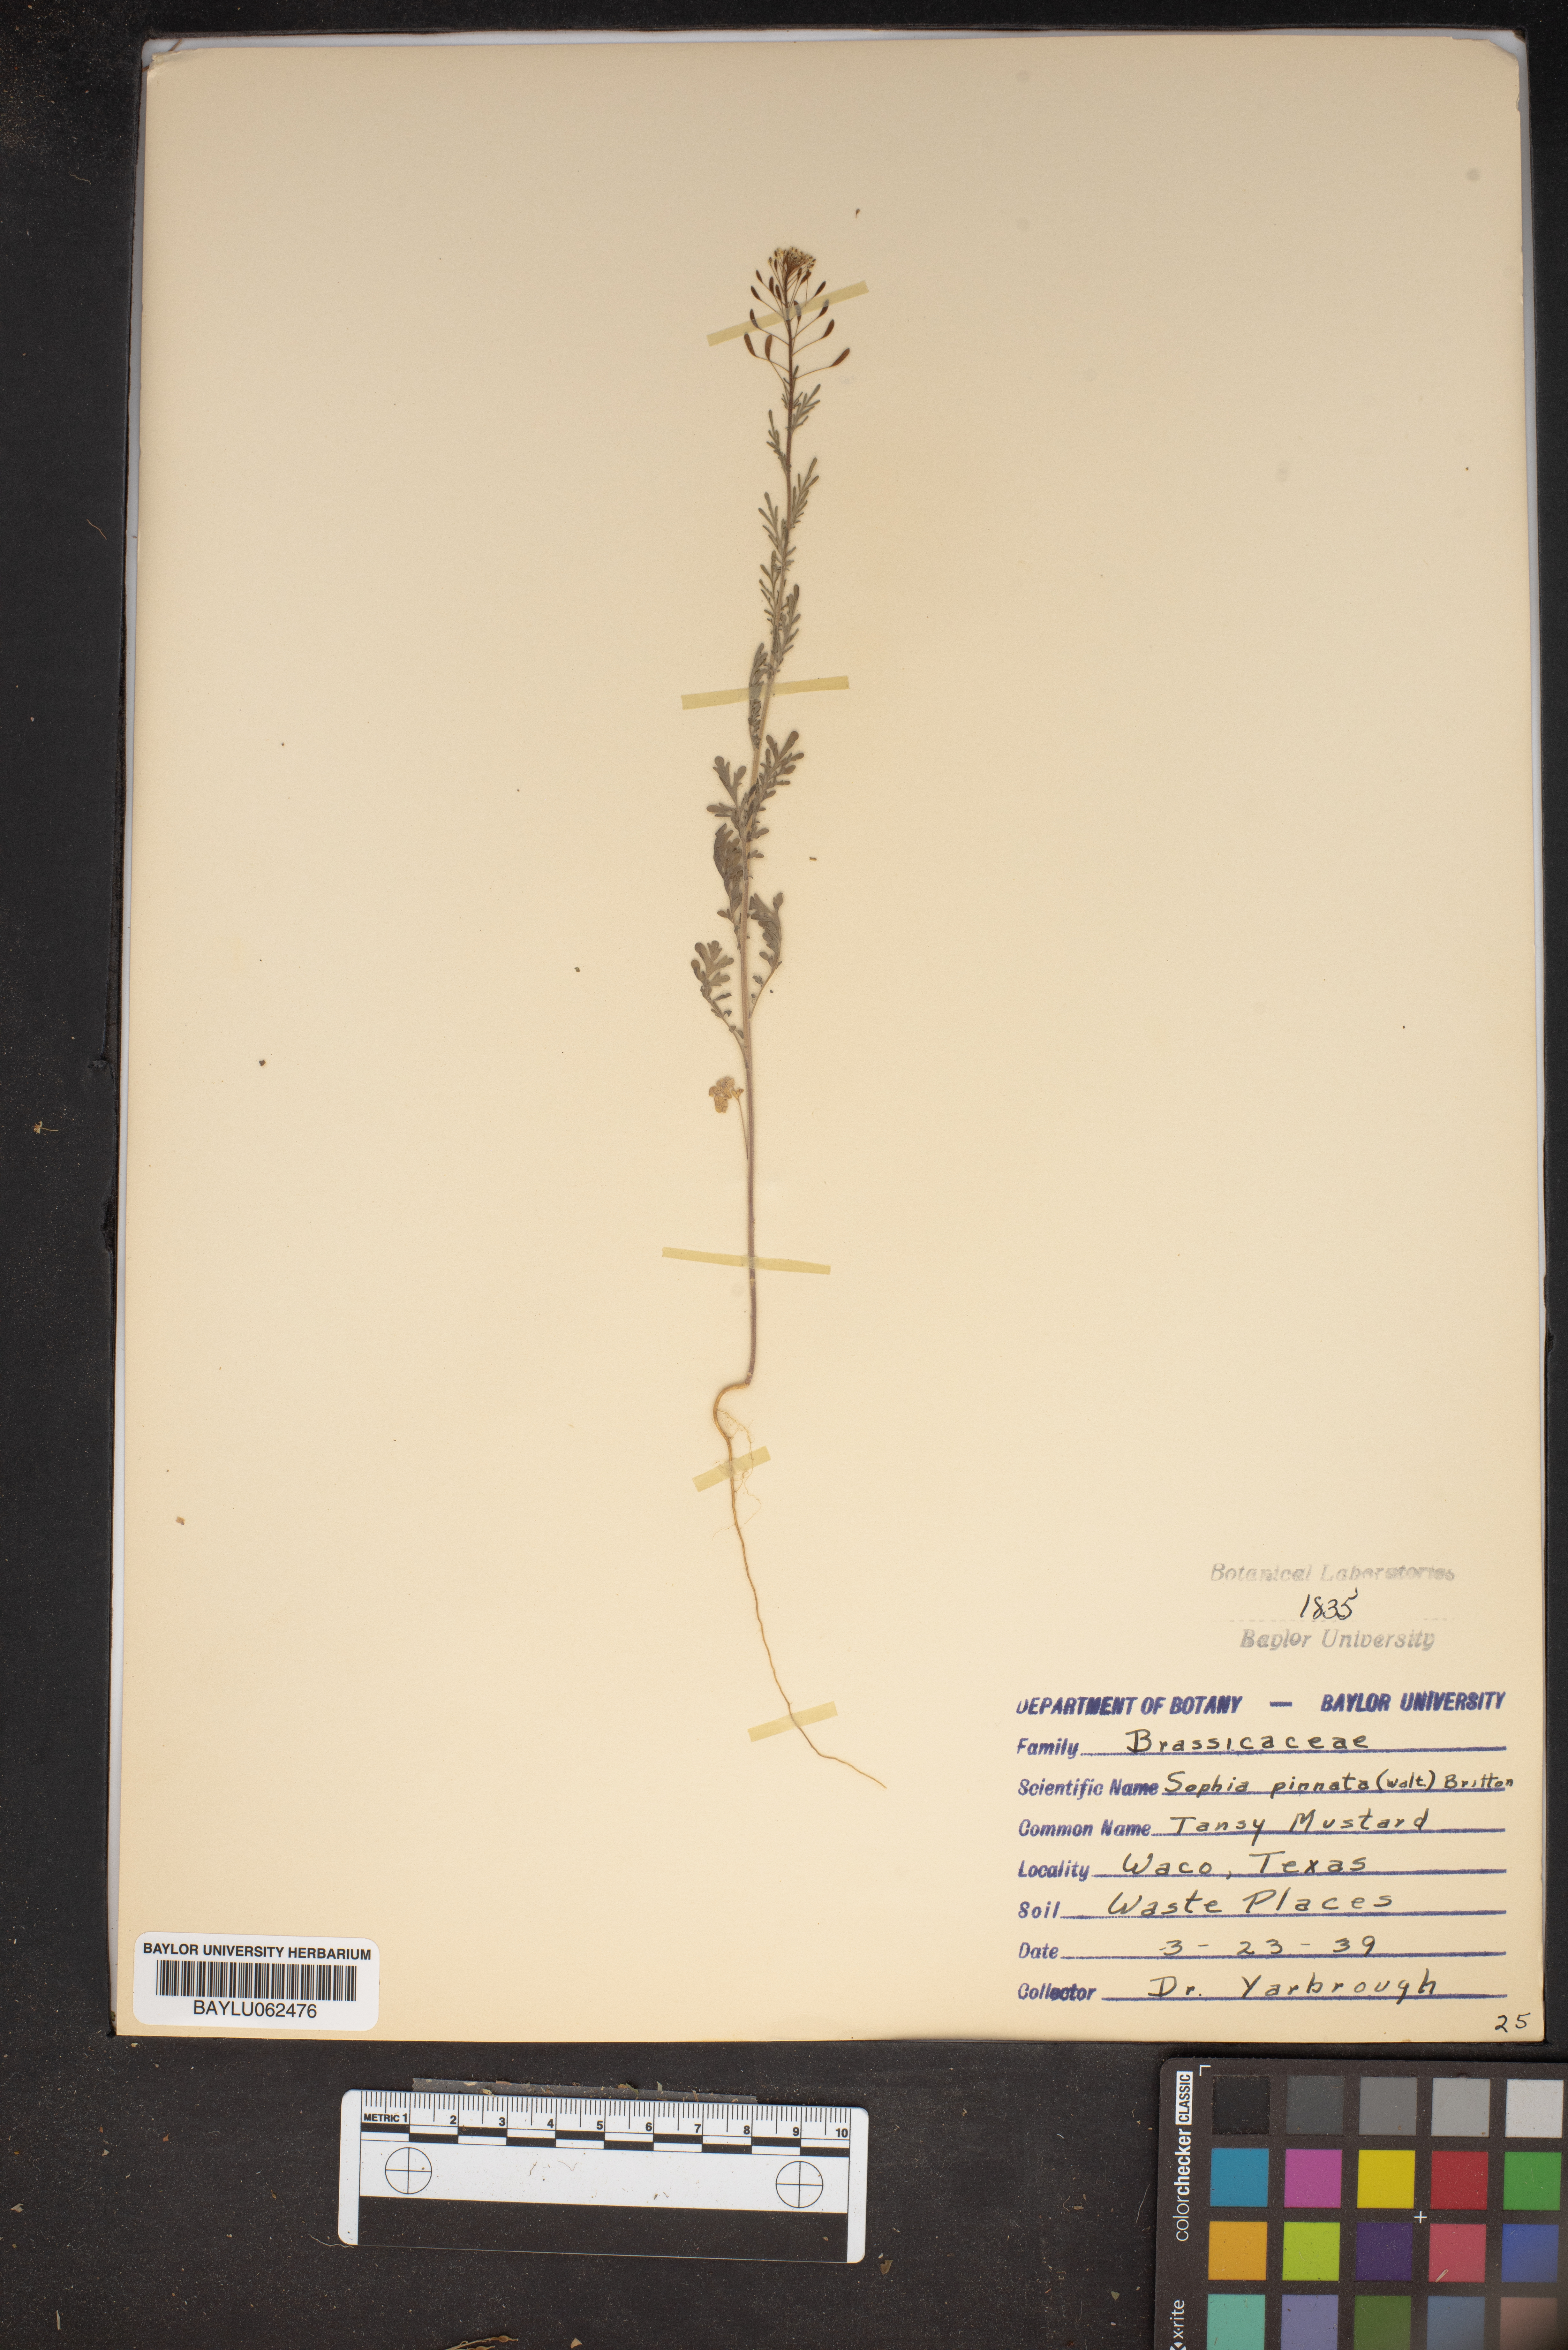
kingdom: Plantae
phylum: Tracheophyta
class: Magnoliopsida
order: Brassicales
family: Brassicaceae
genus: Descurainia
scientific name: Descurainia pinnata
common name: Western tansy mustard
